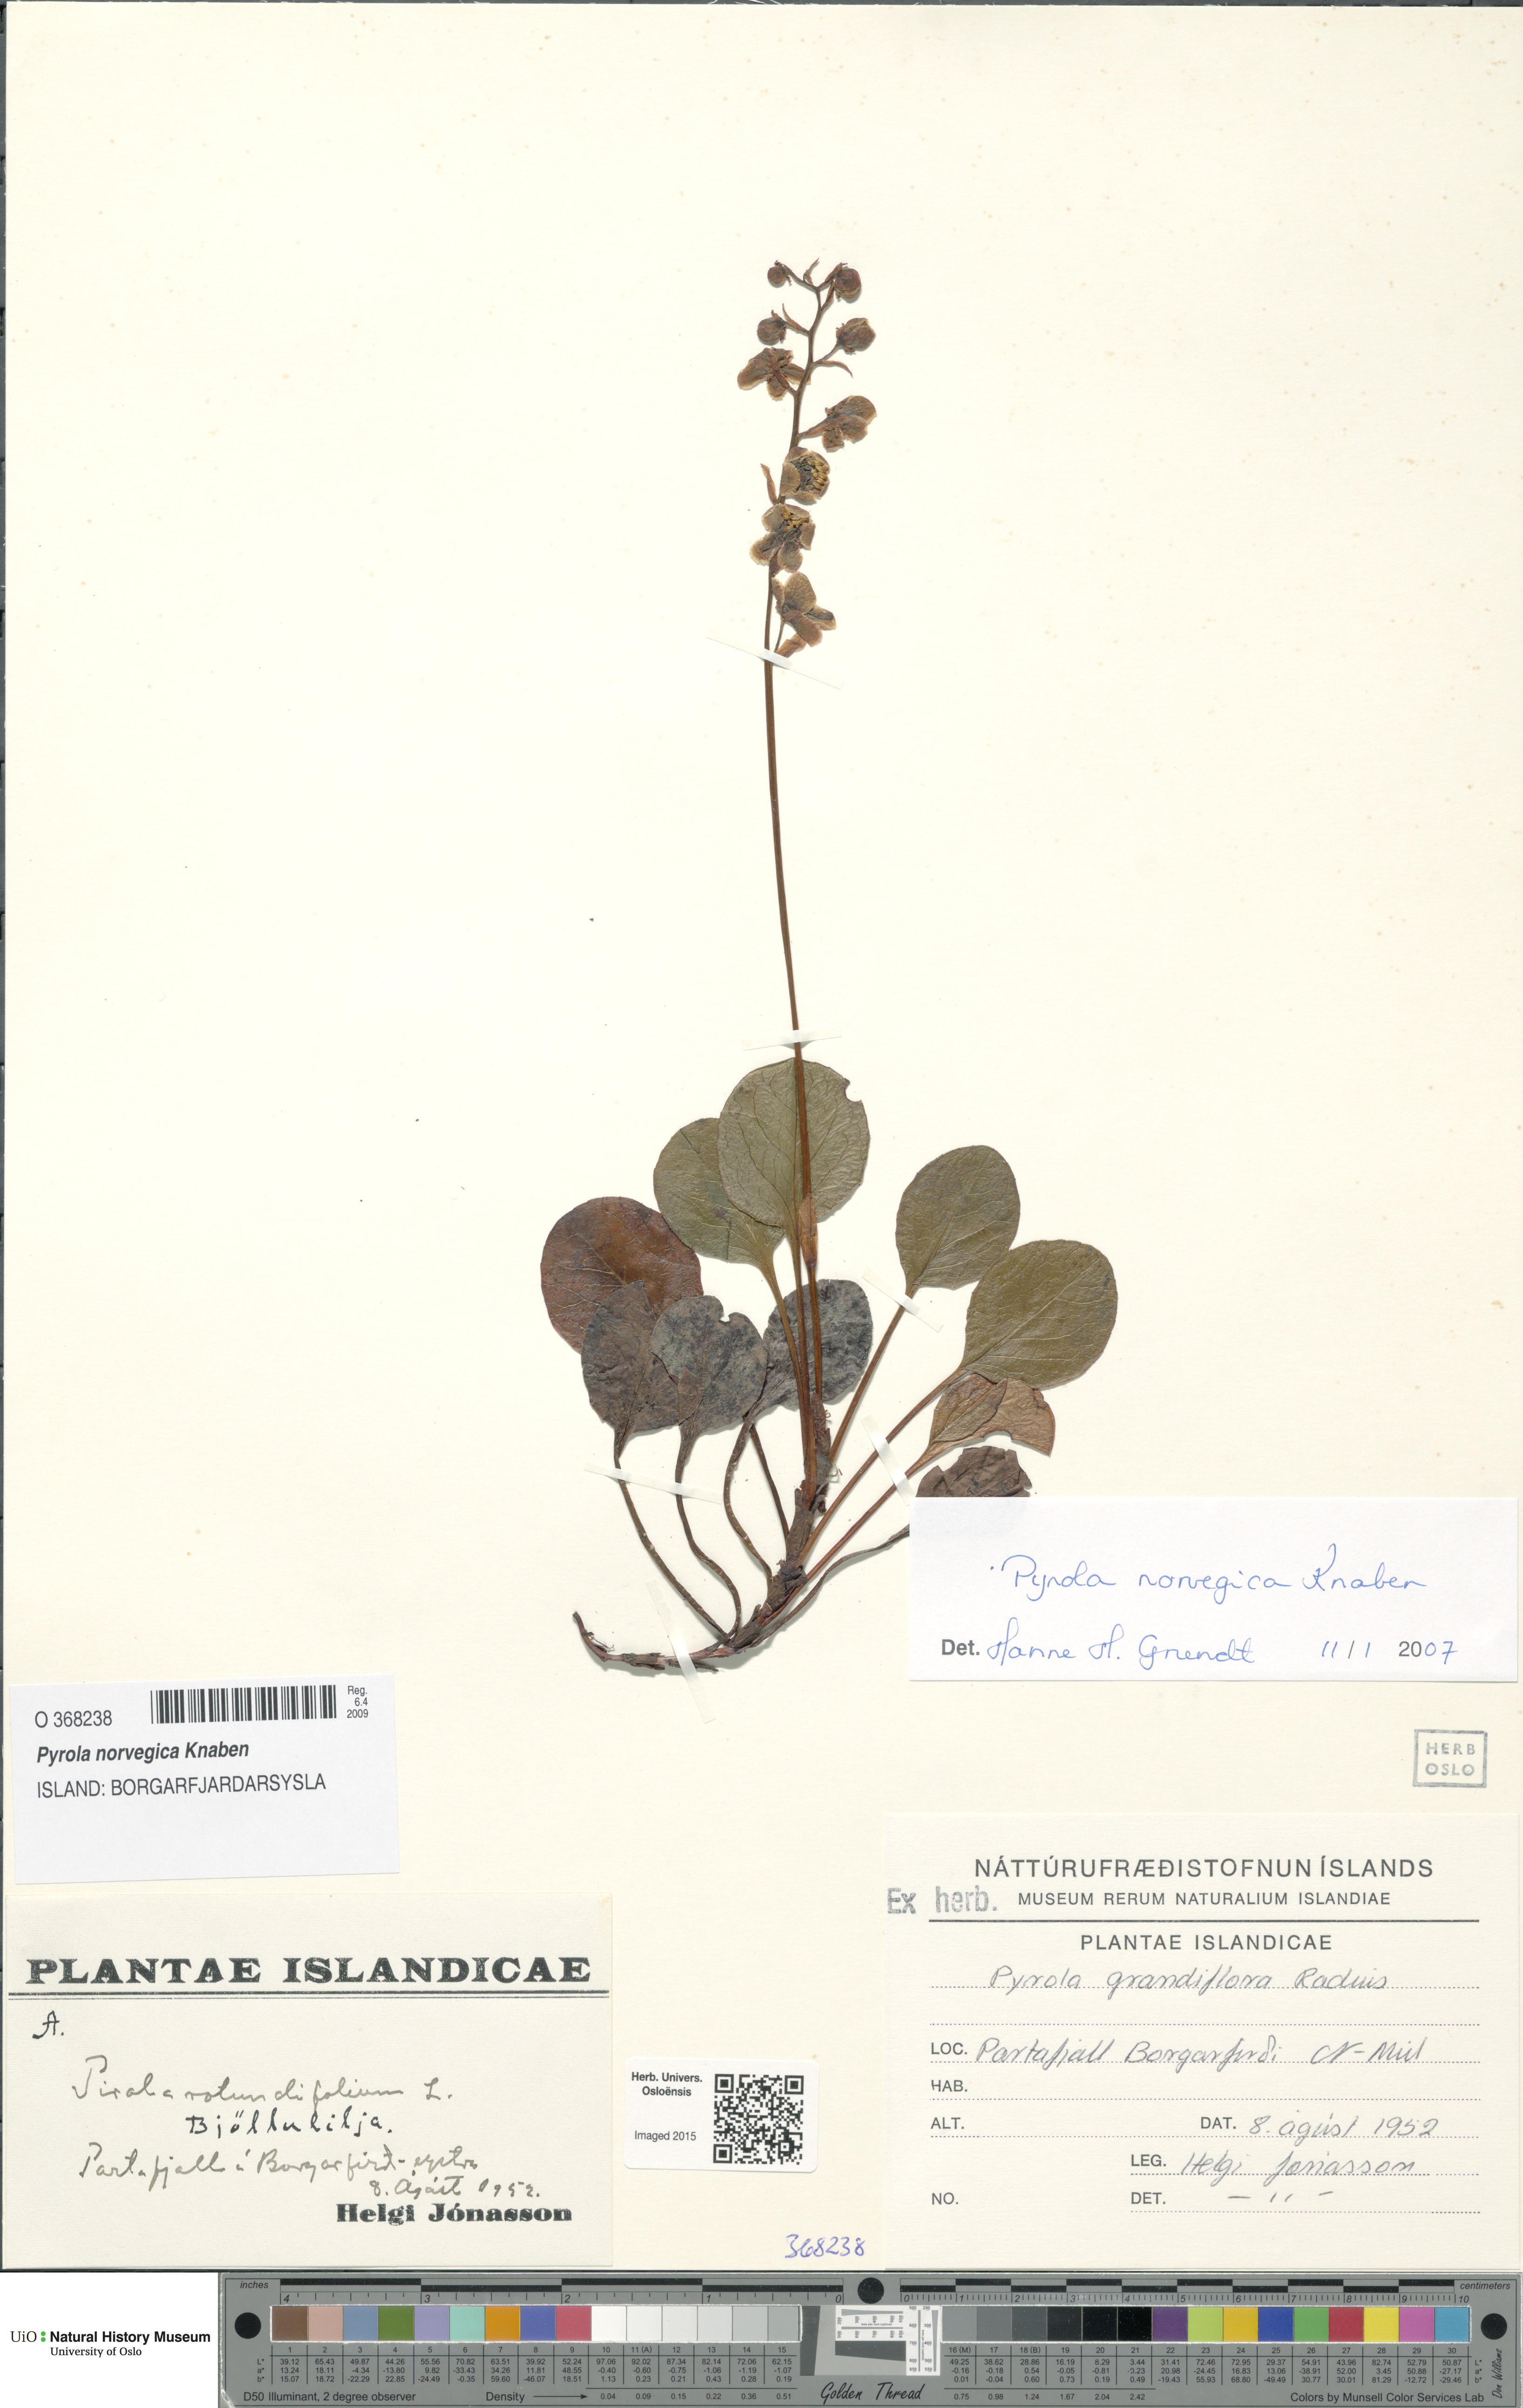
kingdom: Plantae
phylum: Tracheophyta
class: Magnoliopsida
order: Ericales
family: Ericaceae
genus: Pyrola
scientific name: Pyrola rotundifolia
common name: Round-leaved wintergreen
